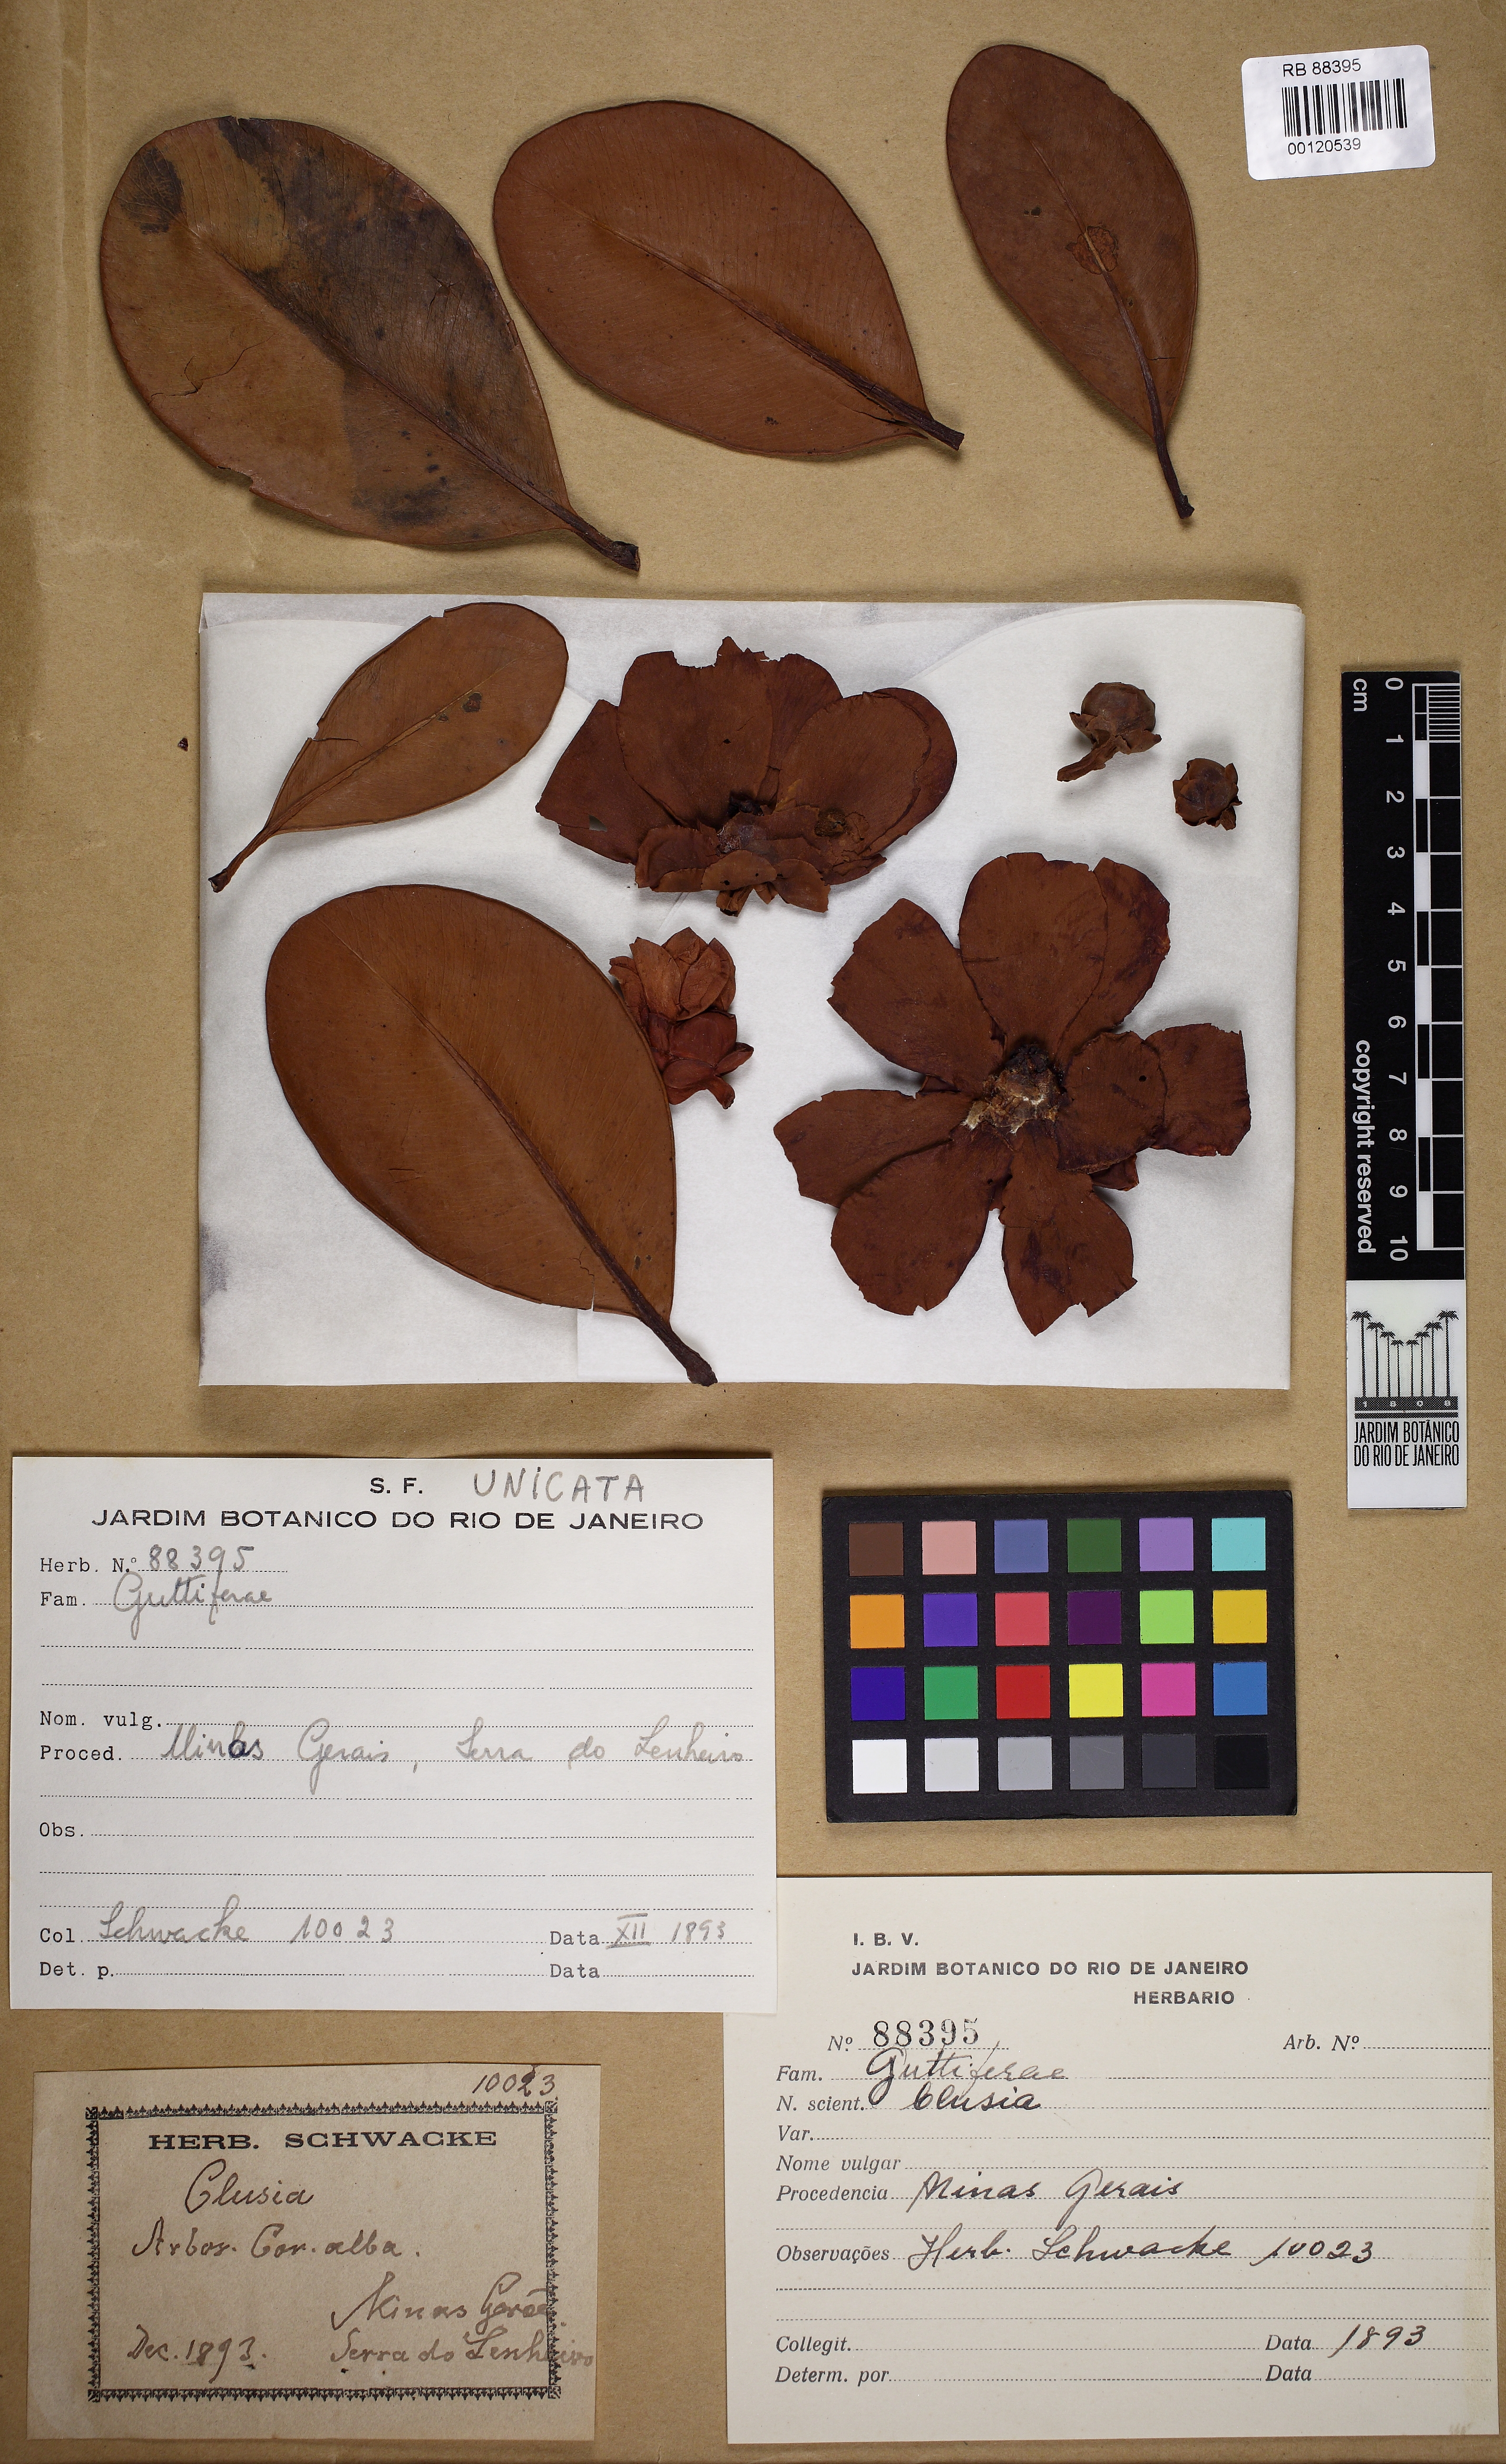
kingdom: Plantae
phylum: Tracheophyta
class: Magnoliopsida
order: Malpighiales
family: Clusiaceae
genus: Clusia
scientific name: Clusia mexiae
